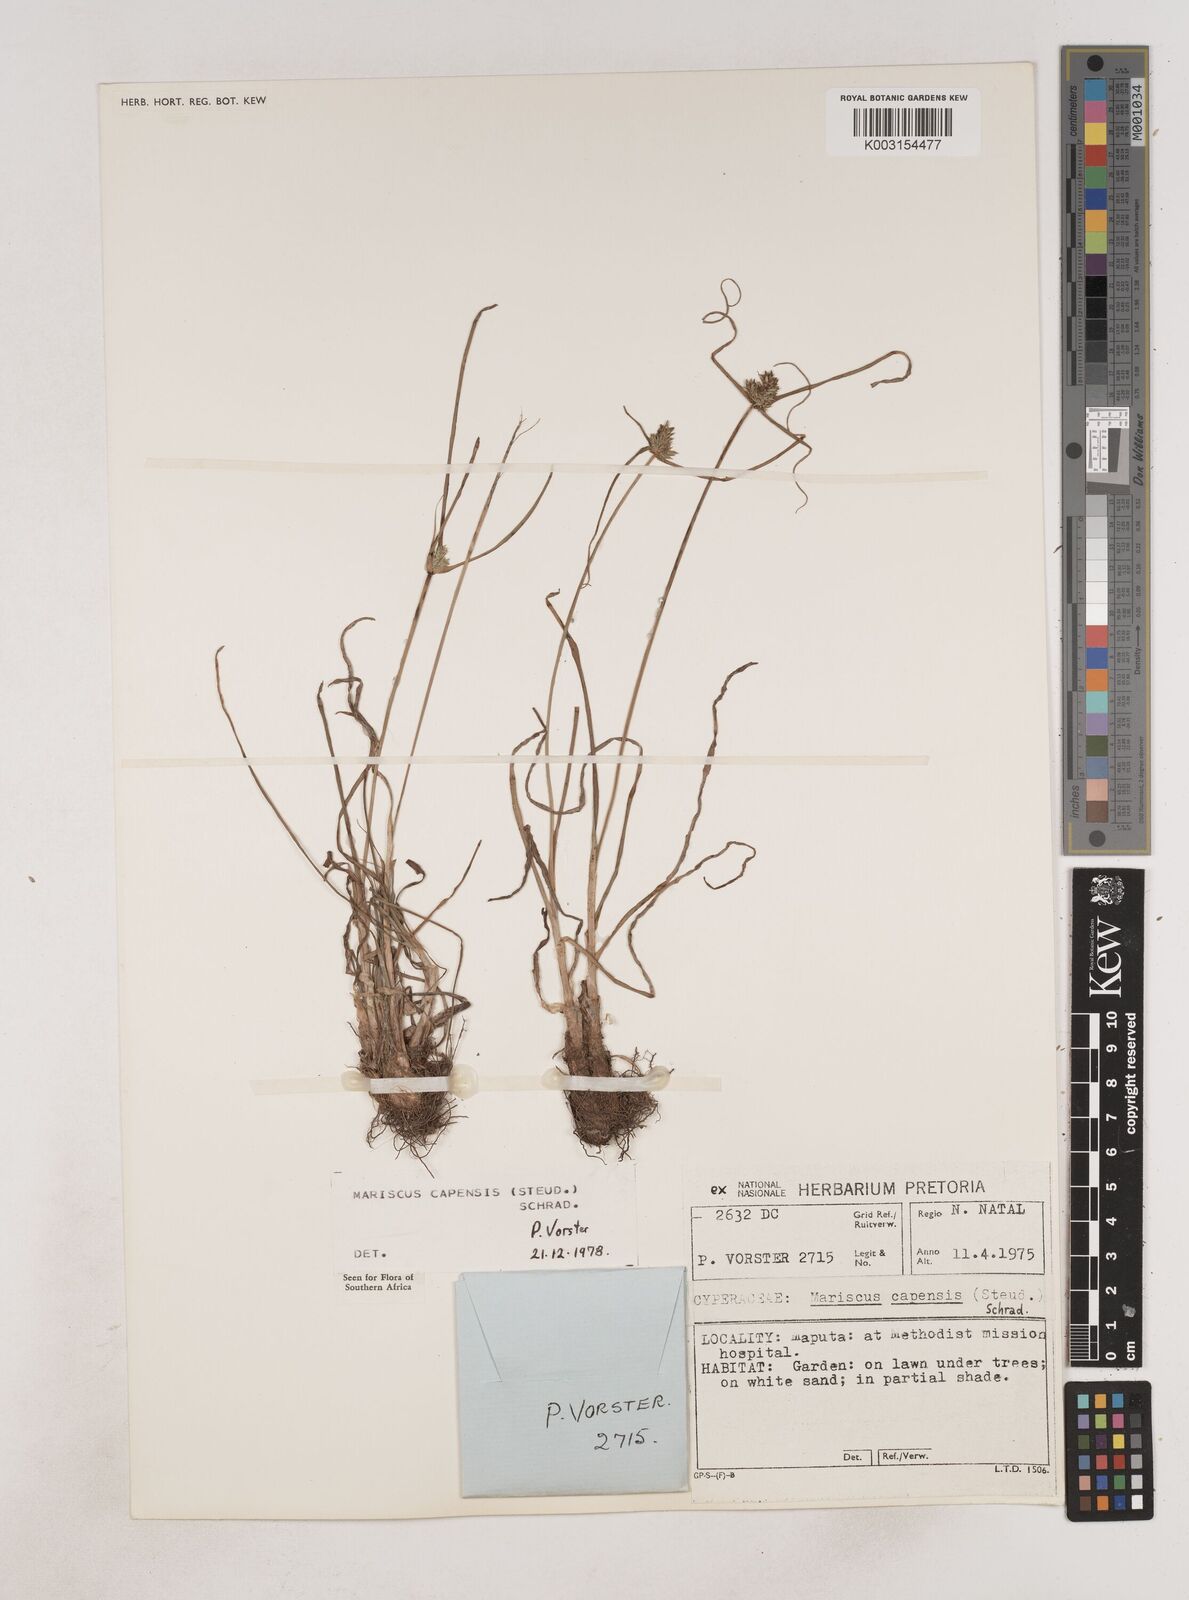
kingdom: Plantae
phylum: Tracheophyta
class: Liliopsida
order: Poales
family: Cyperaceae
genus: Cyperus
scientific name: Cyperus
